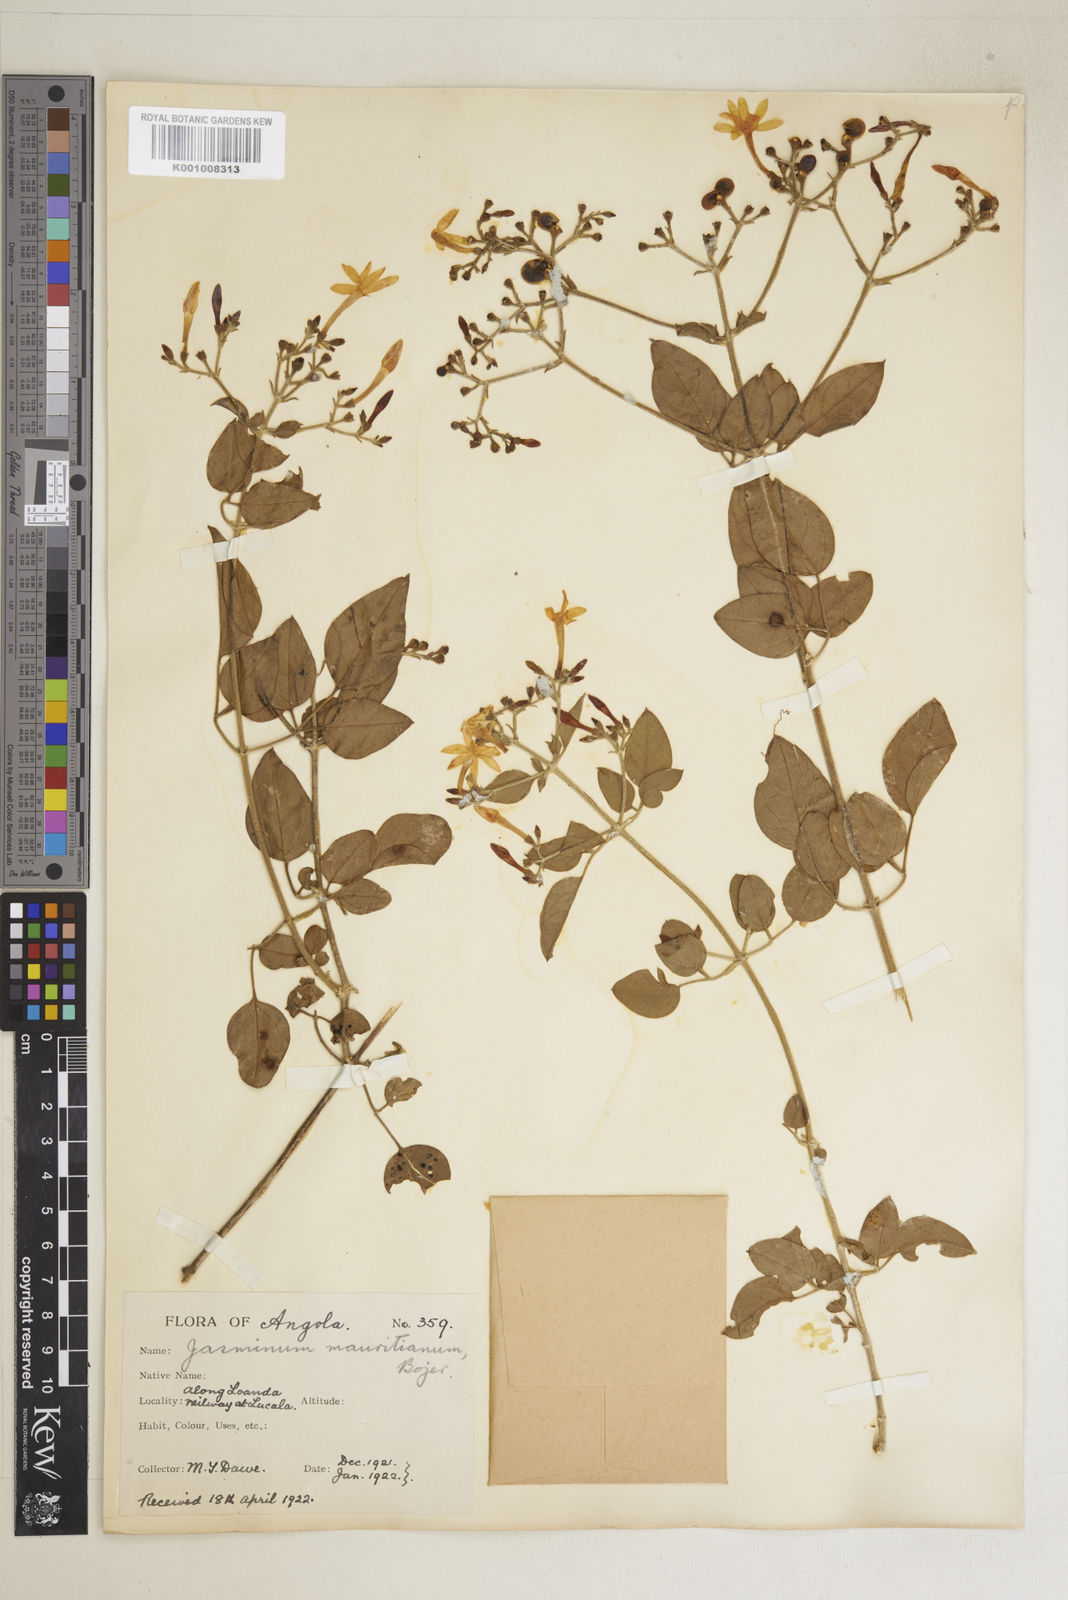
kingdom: Plantae
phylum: Tracheophyta
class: Magnoliopsida
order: Lamiales
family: Oleaceae
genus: Jasminum
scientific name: Jasminum fluminense
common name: Brazilian jasmine
